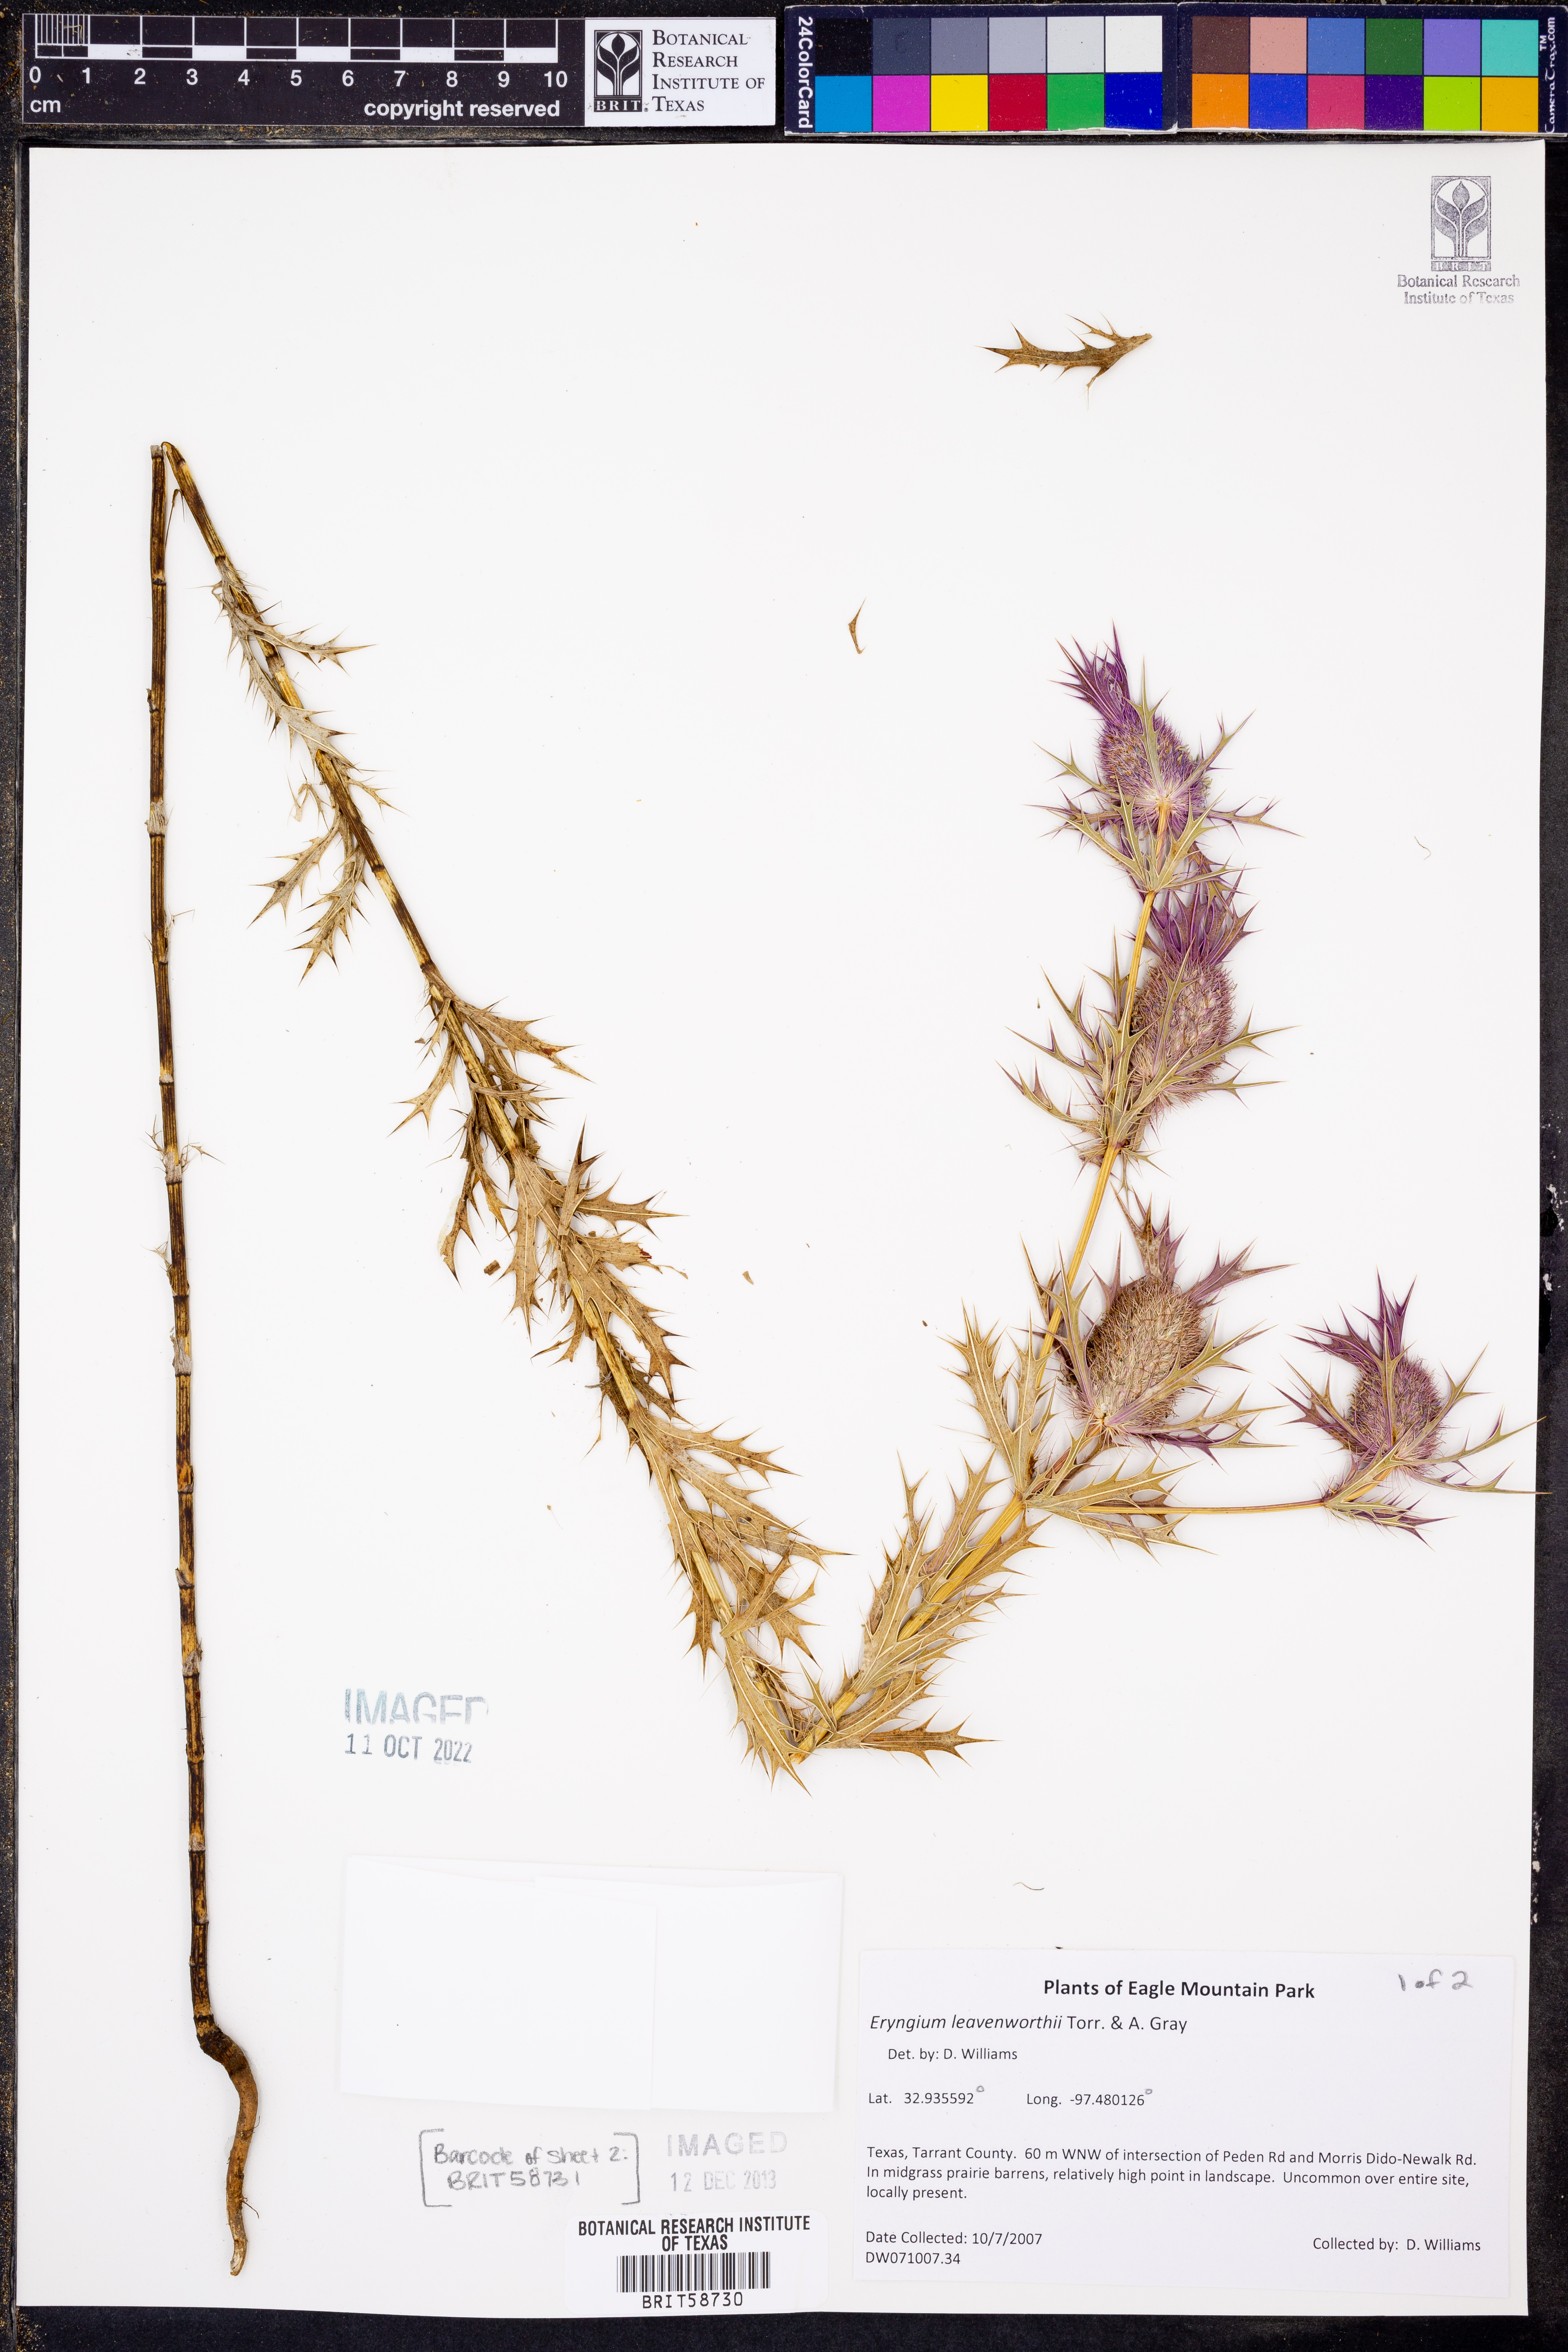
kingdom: Plantae
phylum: Tracheophyta
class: Magnoliopsida
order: Apiales
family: Apiaceae
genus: Eryngium
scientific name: Eryngium leavenworthii
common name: Leavenworth's eryngo
